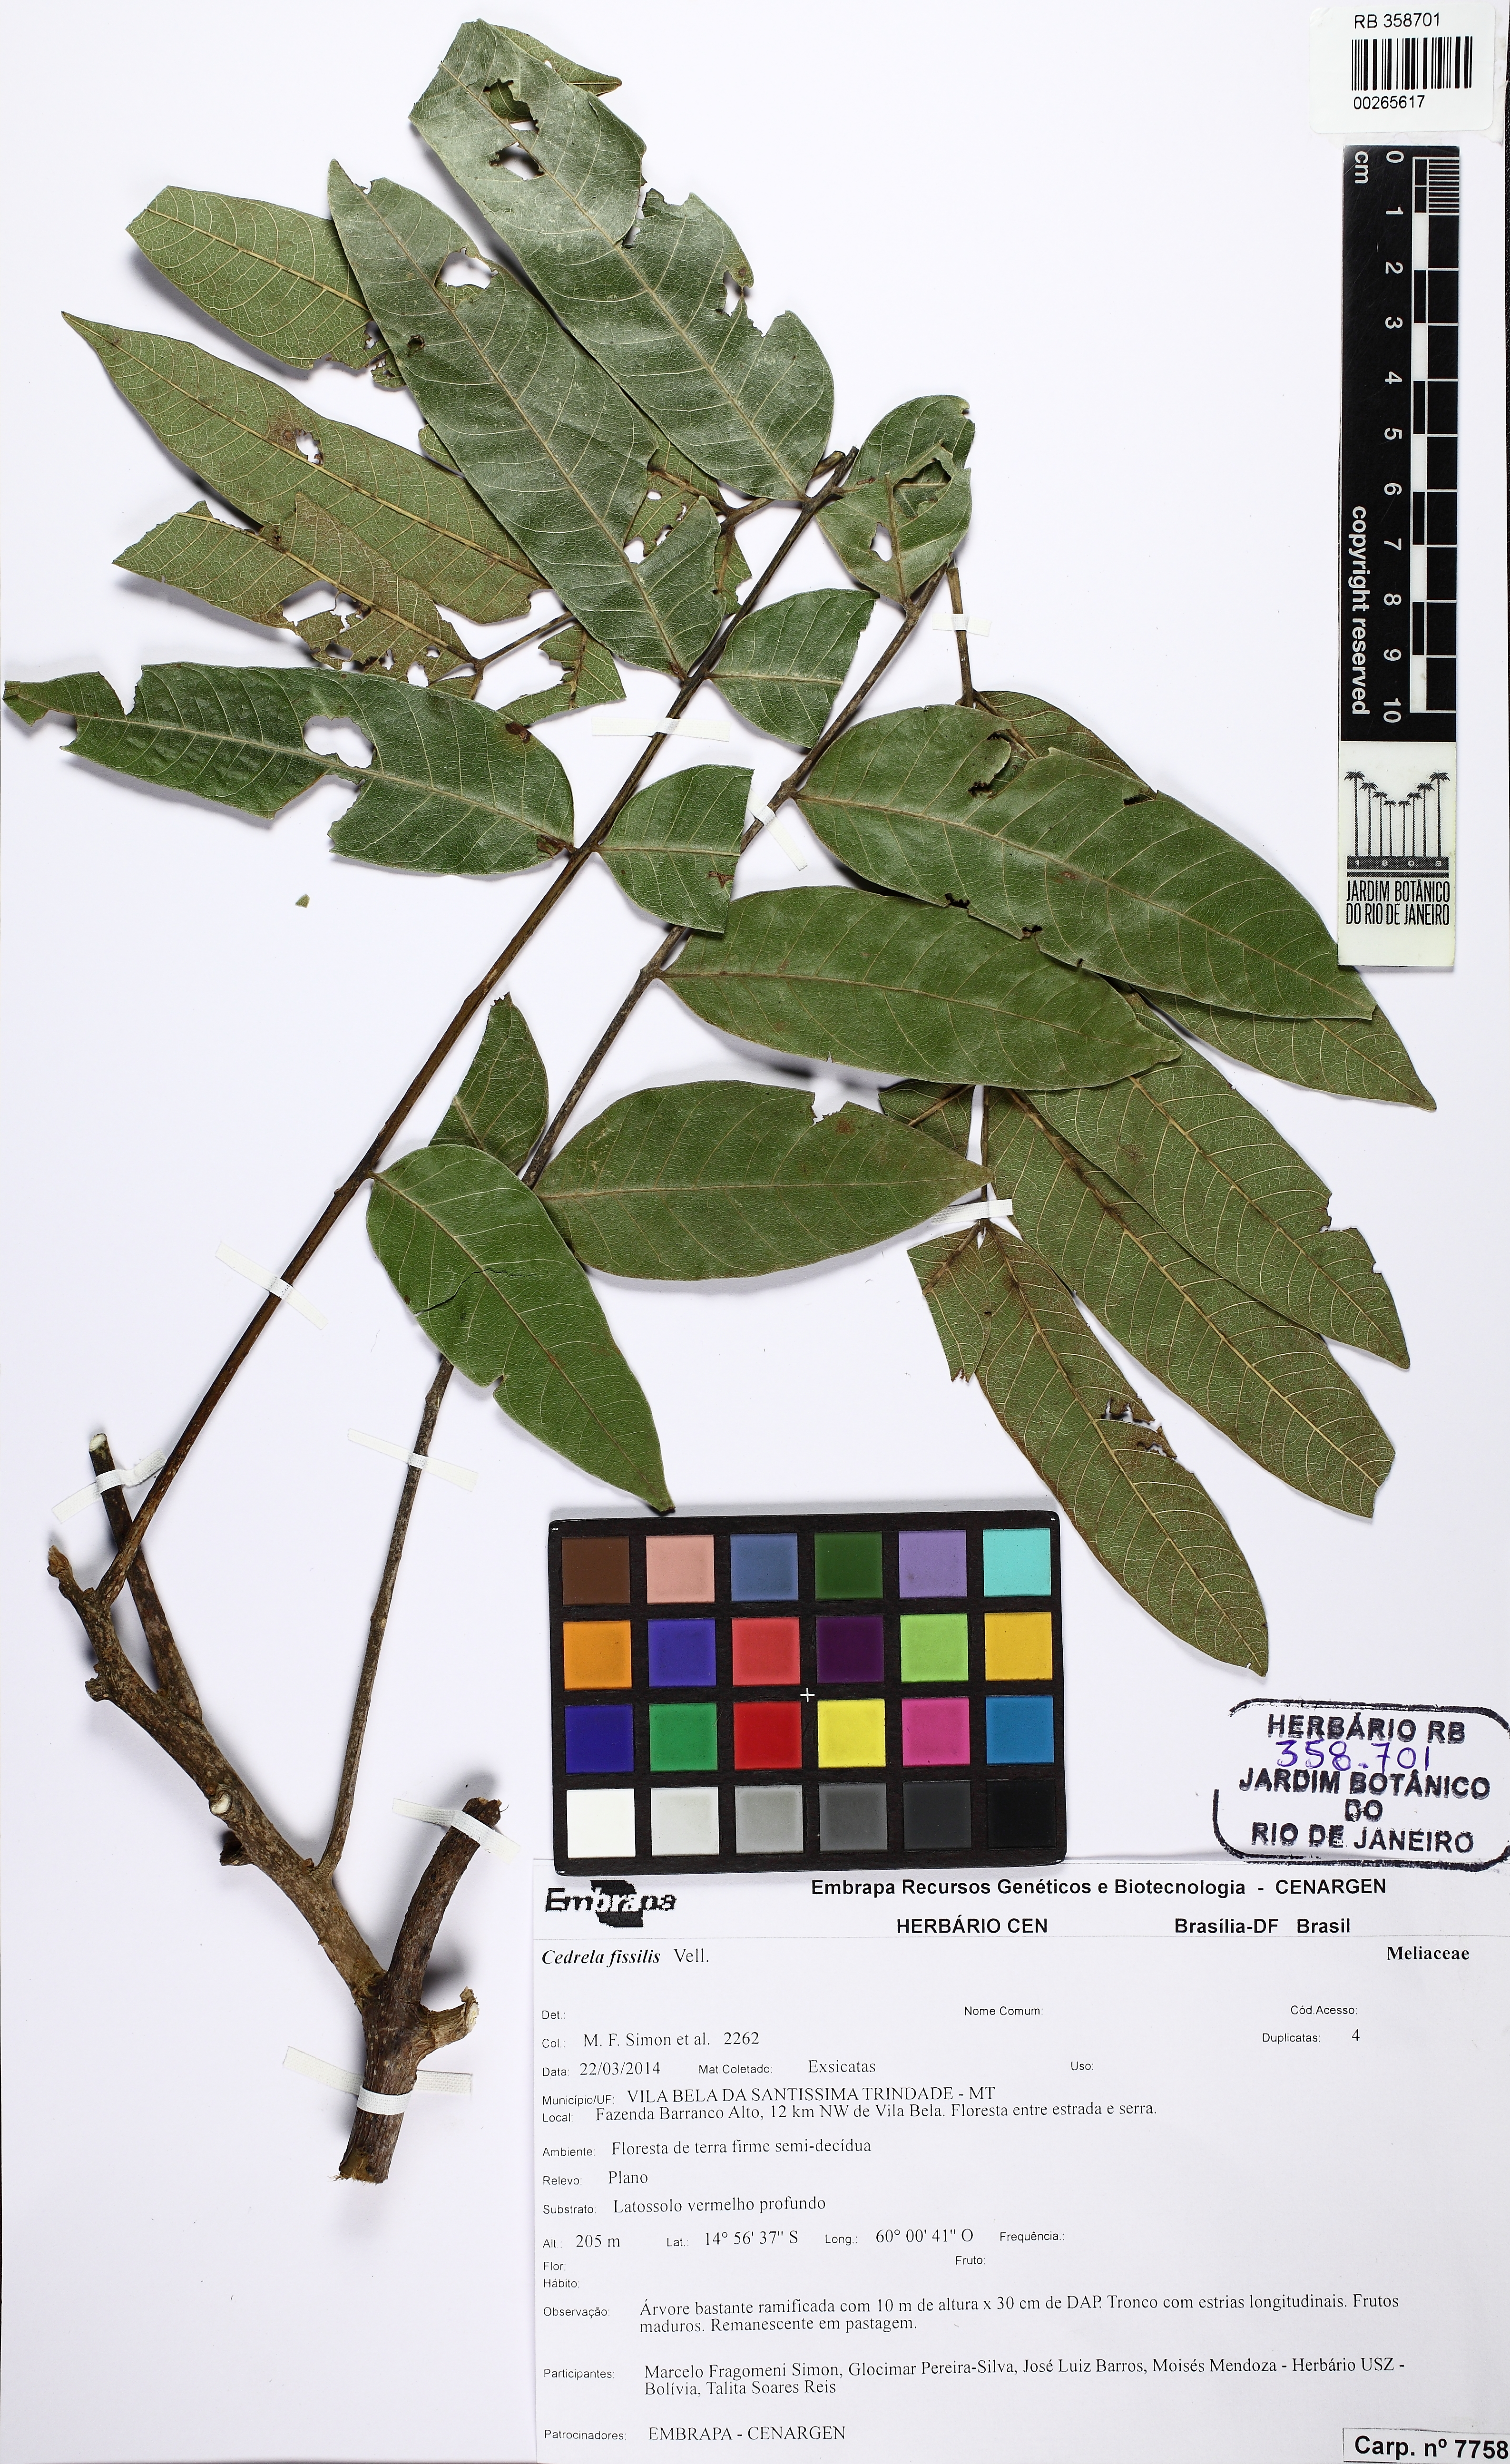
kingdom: Plantae
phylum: Tracheophyta
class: Magnoliopsida
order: Sapindales
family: Meliaceae
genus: Cedrela
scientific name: Cedrela fissilis
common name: Argentine cedar
